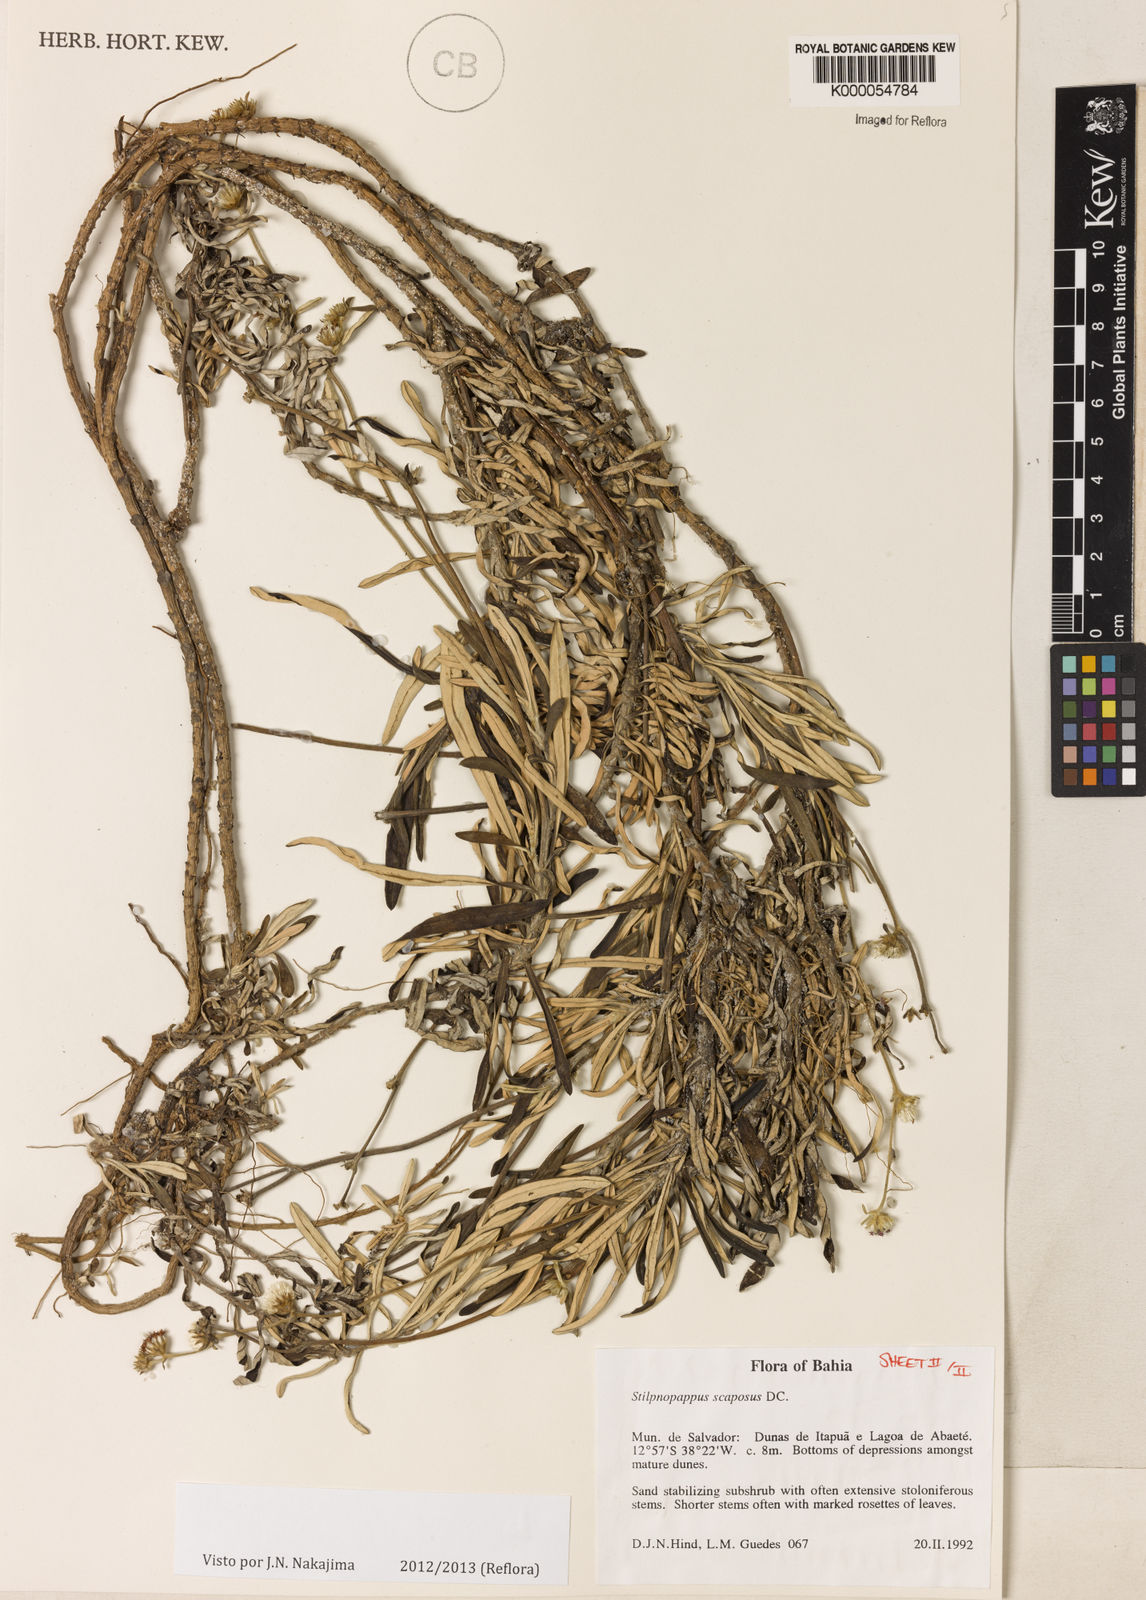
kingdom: Plantae
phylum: Tracheophyta
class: Magnoliopsida
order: Asterales
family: Asteraceae
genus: Stilpnopappus
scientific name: Stilpnopappus scaposus
